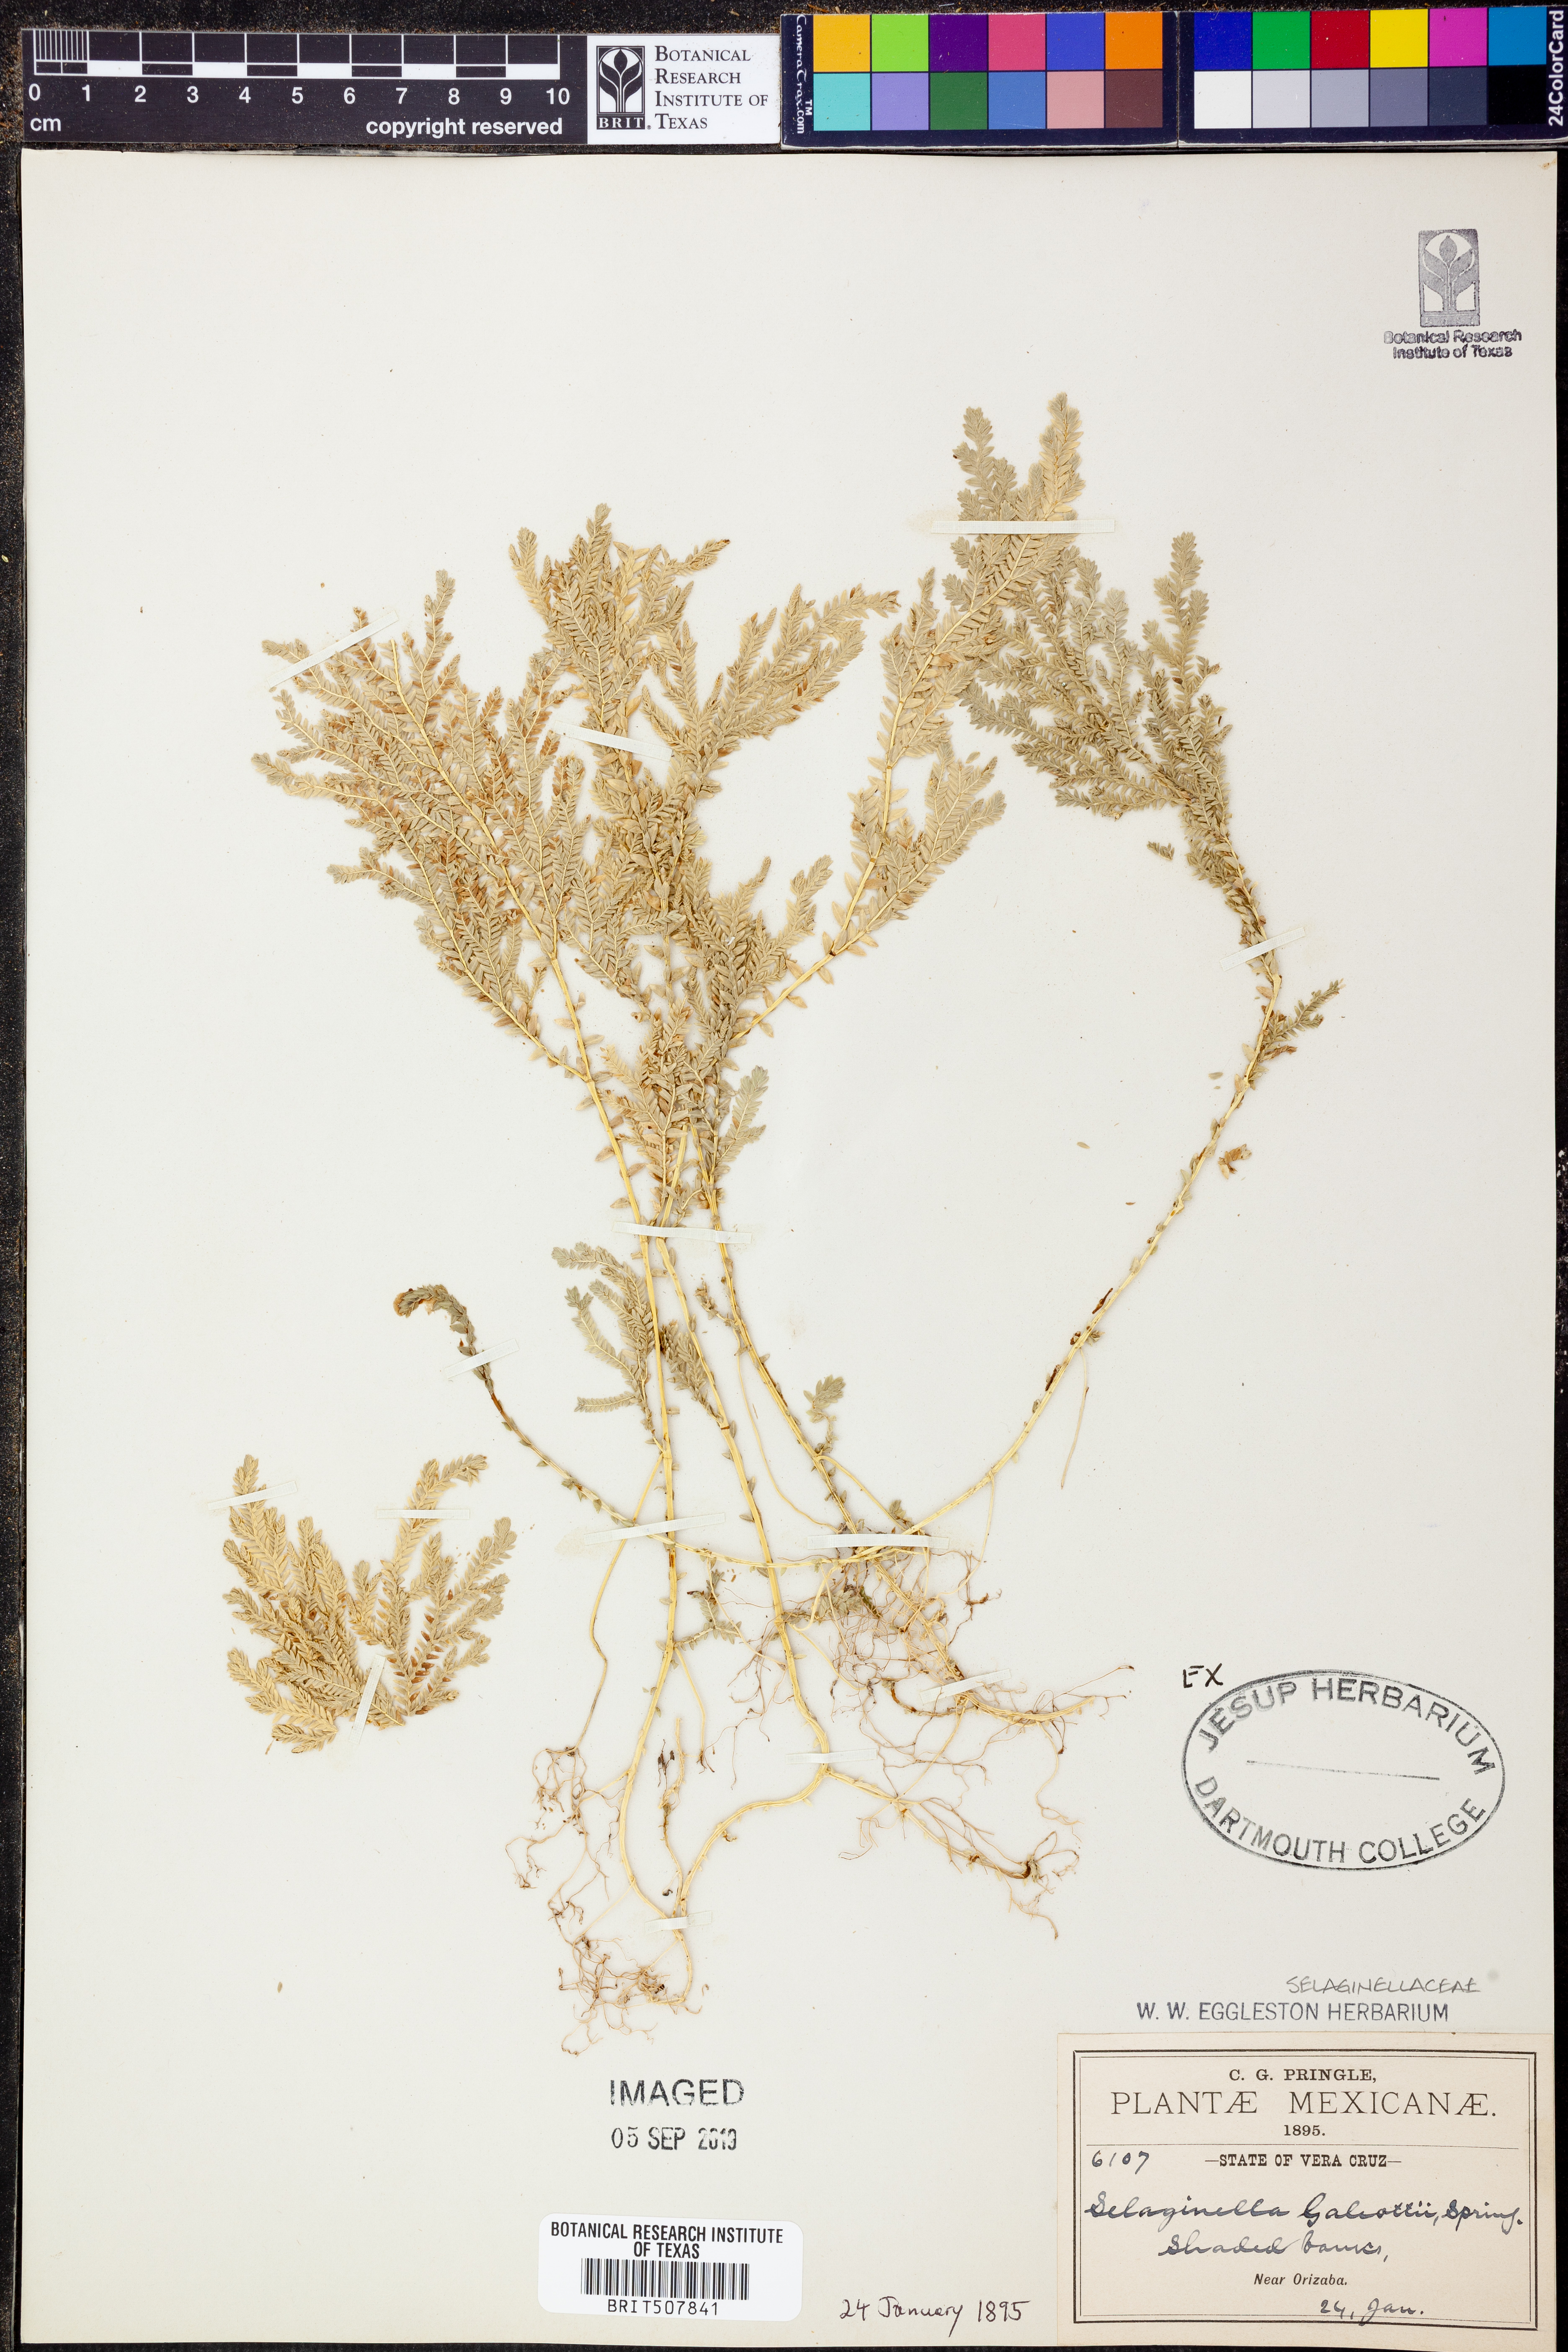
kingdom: Plantae
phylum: Tracheophyta
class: Lycopodiopsida
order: Selaginellales
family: Selaginellaceae
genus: Selaginella
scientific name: Selaginella stellata
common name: Starry spikemoss
